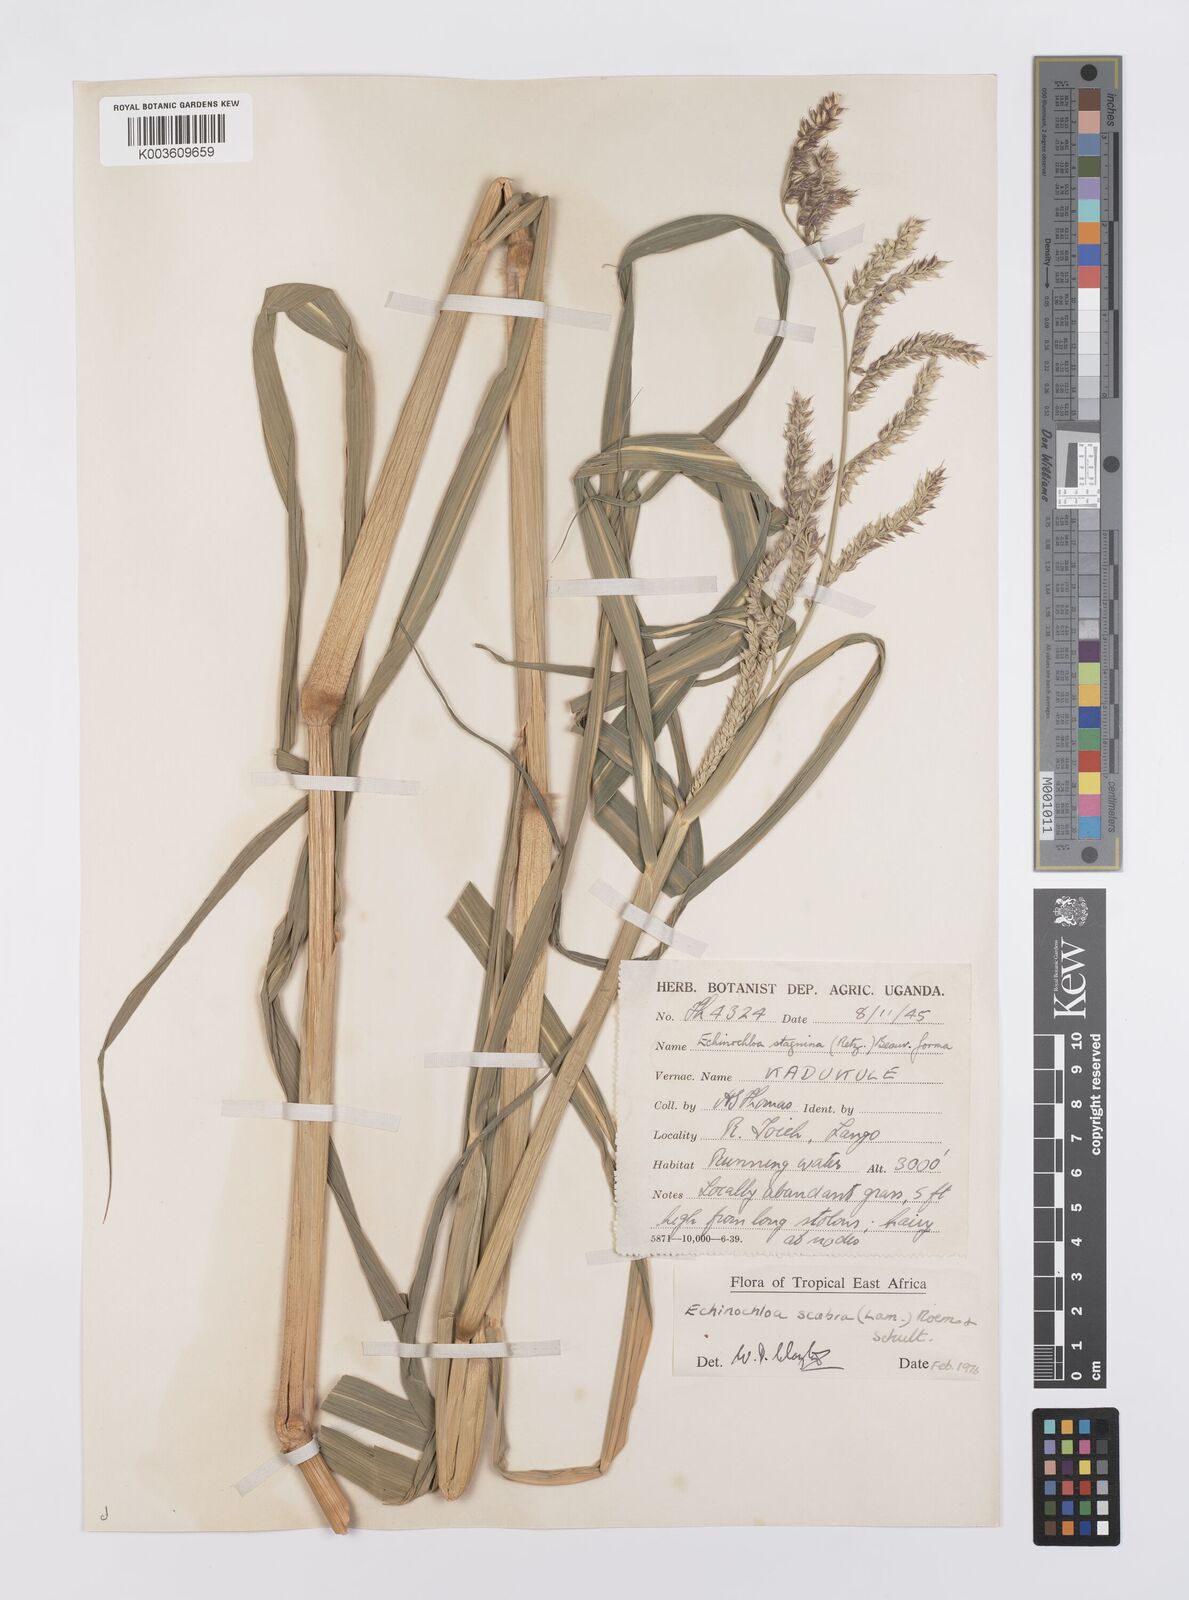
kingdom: Plantae
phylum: Tracheophyta
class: Liliopsida
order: Poales
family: Poaceae
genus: Echinochloa
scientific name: Echinochloa stagnina
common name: Burgu grass
